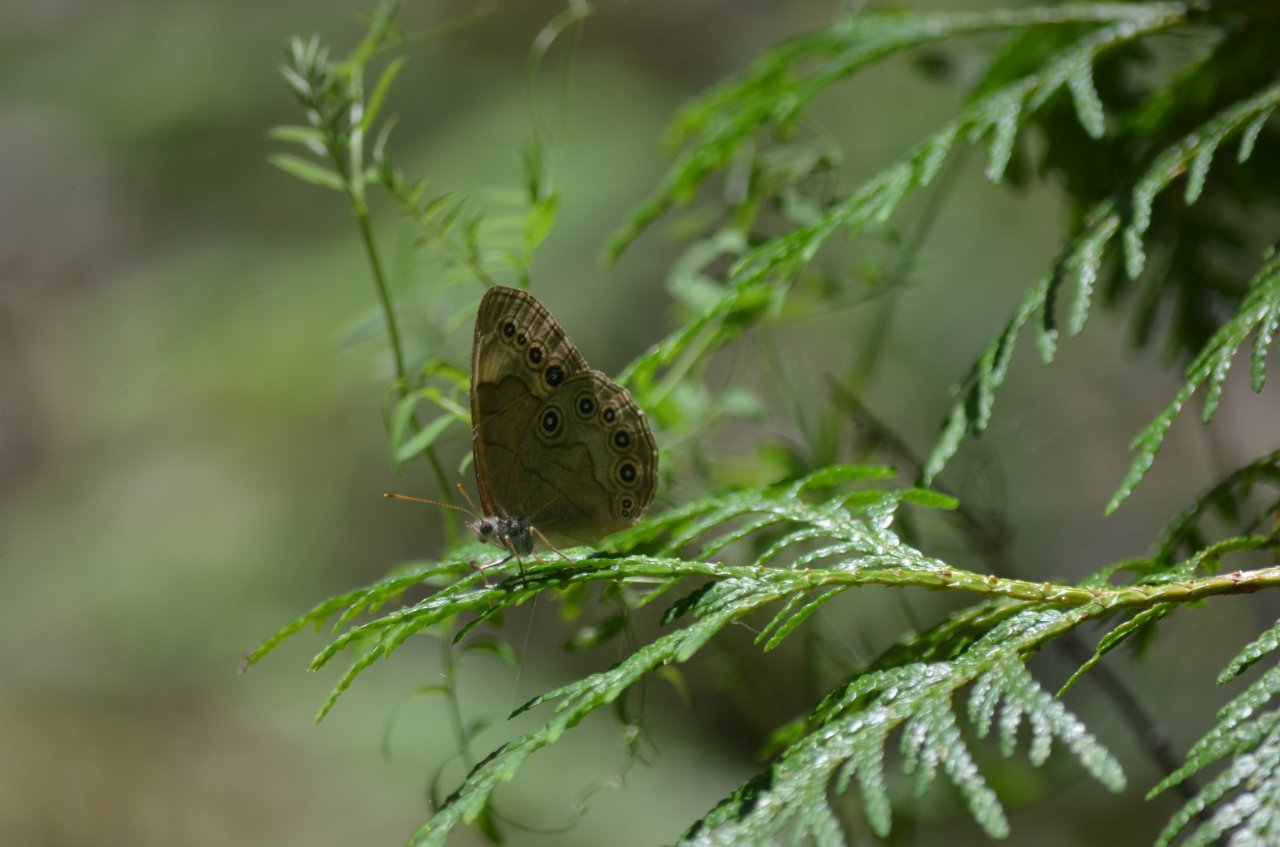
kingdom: Animalia
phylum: Arthropoda
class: Insecta
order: Lepidoptera
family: Nymphalidae
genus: Lethe
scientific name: Lethe eurydice
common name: Appalachian Eyed Brown
